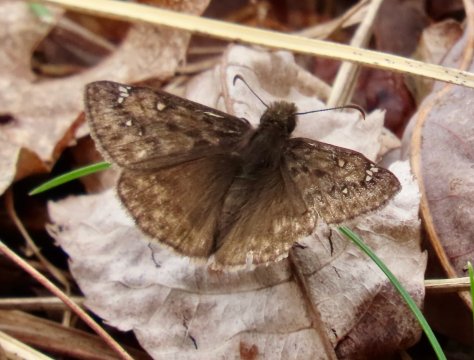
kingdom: Animalia
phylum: Arthropoda
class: Insecta
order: Lepidoptera
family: Hesperiidae
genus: Gesta
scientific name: Gesta
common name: Juvenal's Duskywing
